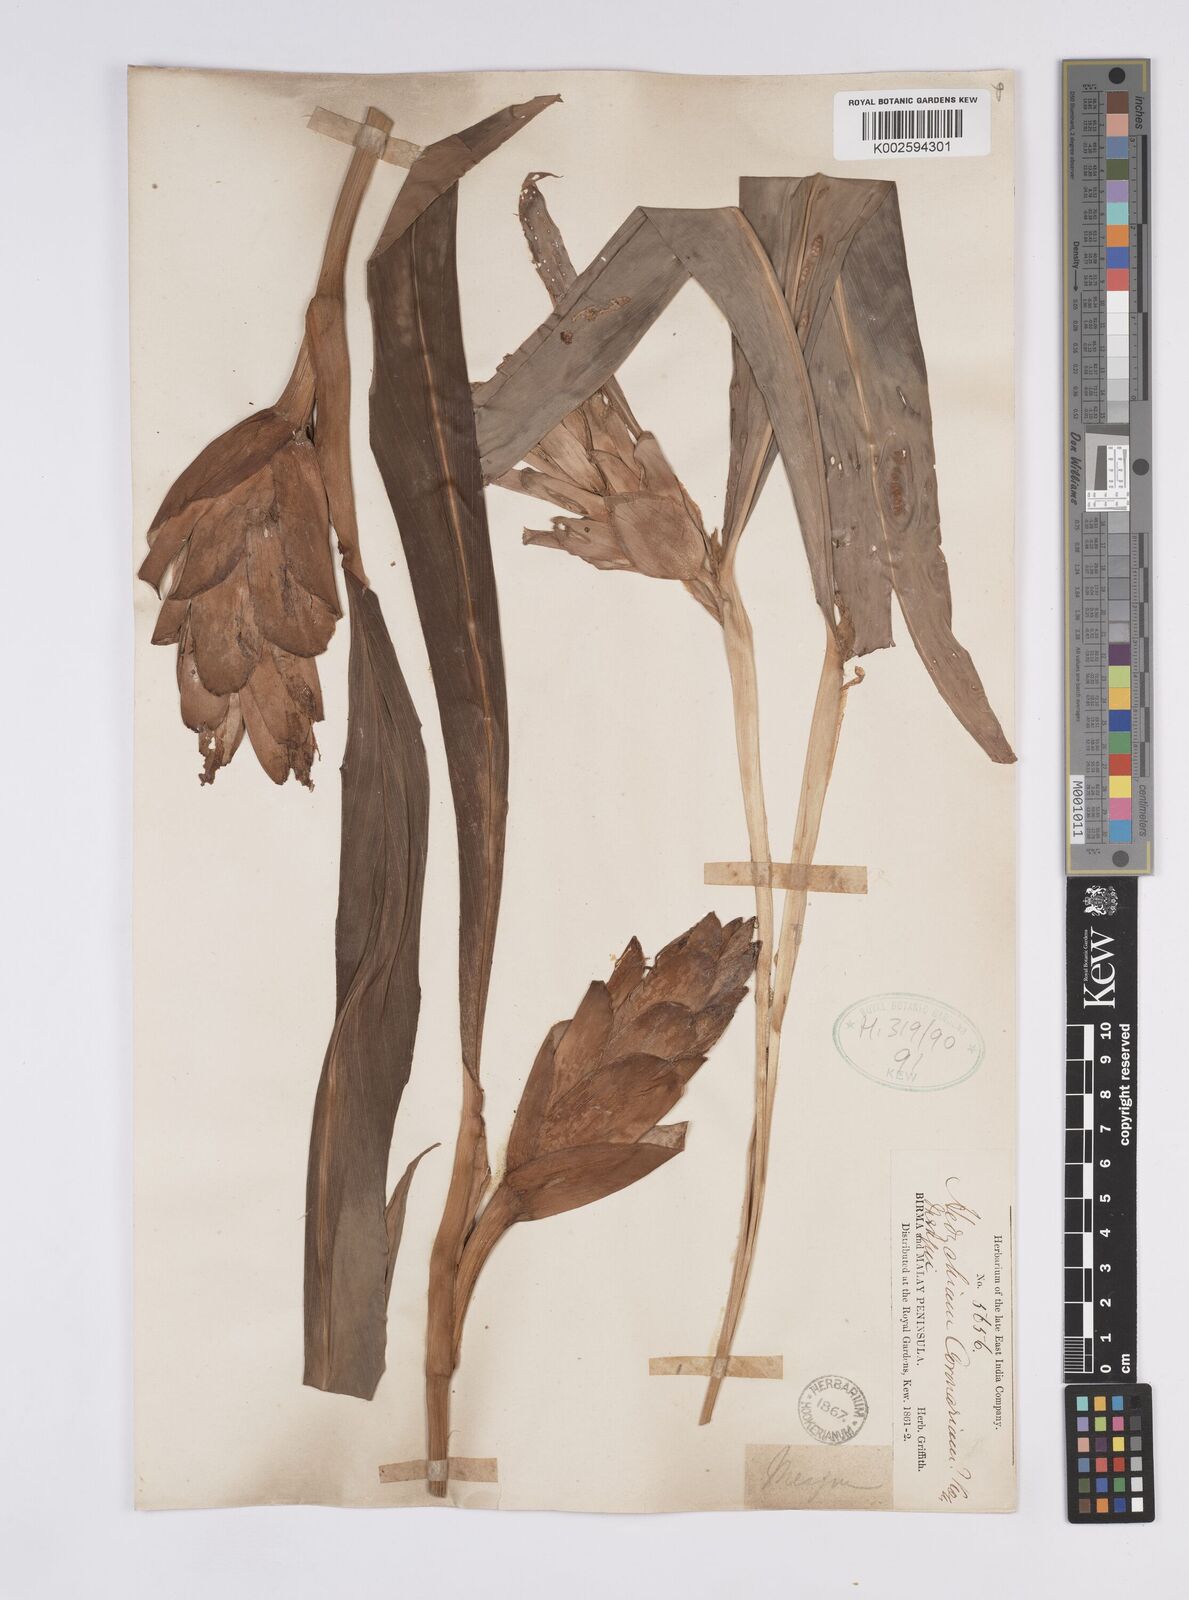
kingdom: Plantae
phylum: Tracheophyta
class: Liliopsida
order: Zingiberales
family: Zingiberaceae
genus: Hedychium
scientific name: Hedychium coronarium
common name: White garland-lily
